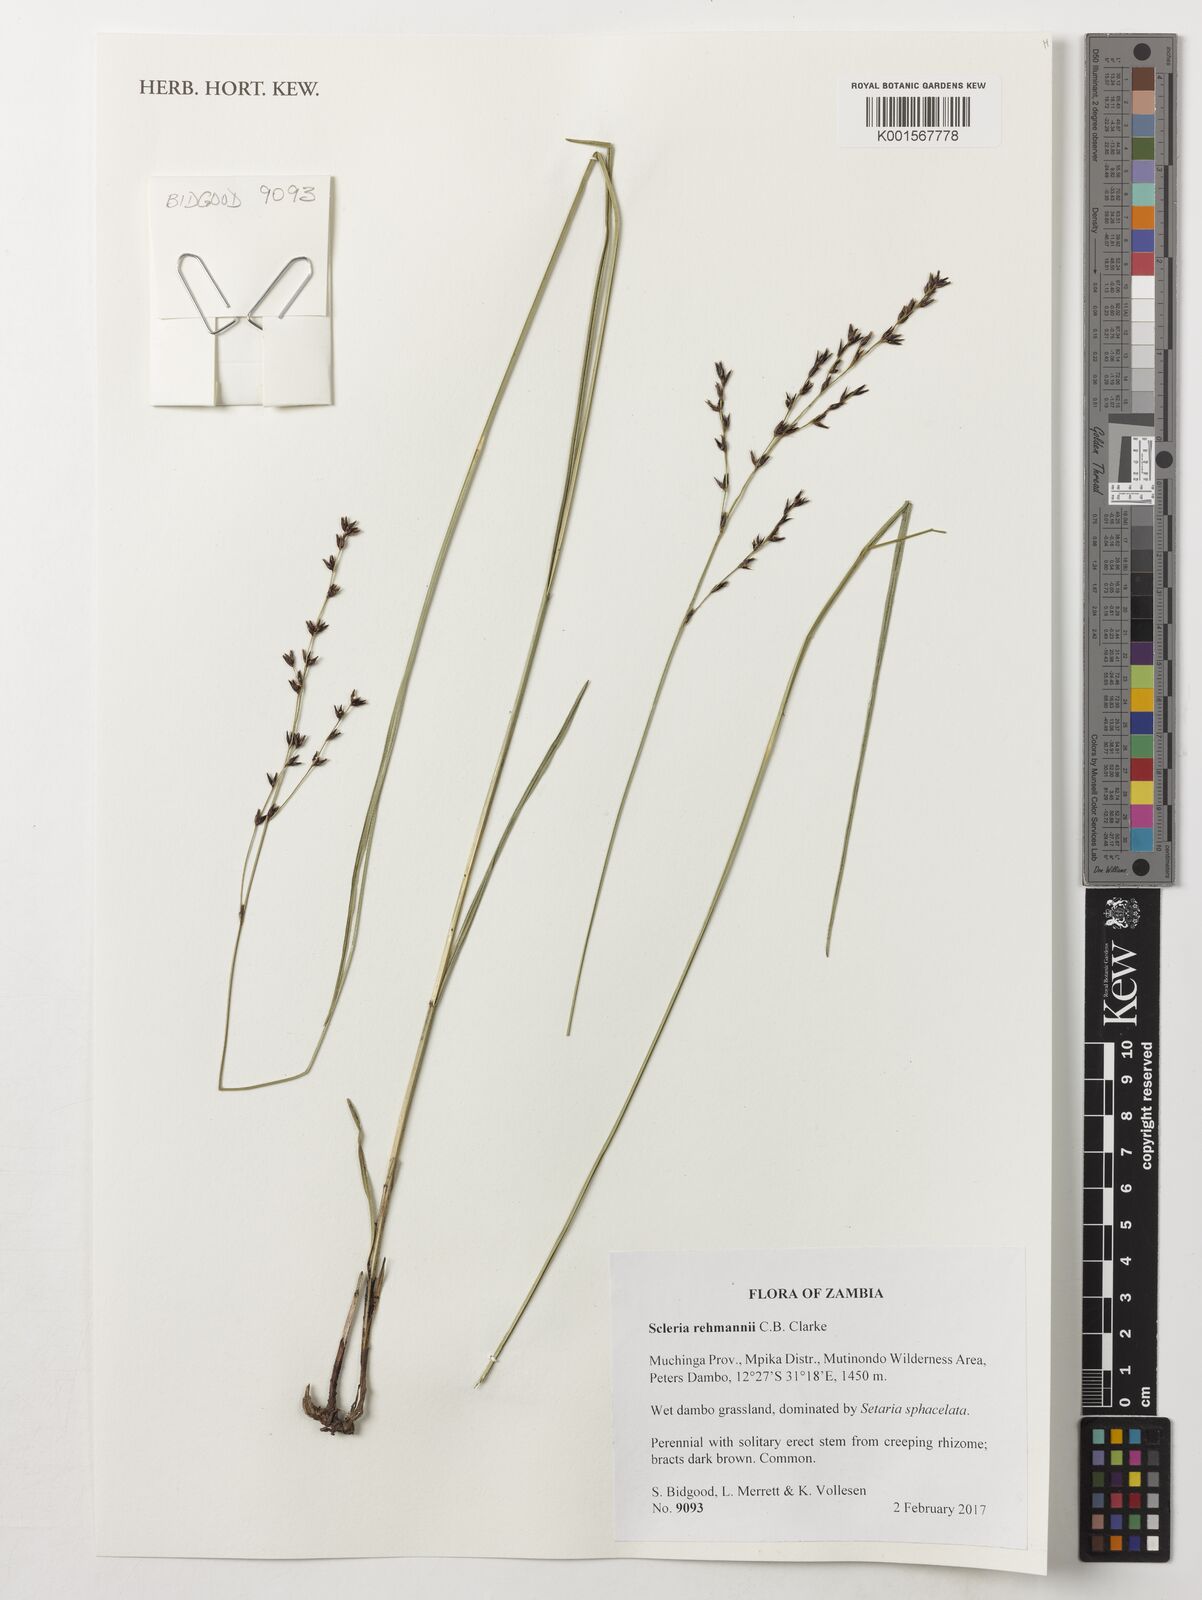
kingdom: Plantae
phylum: Tracheophyta
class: Liliopsida
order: Poales
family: Cyperaceae
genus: Scleria
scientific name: Scleria paupercula
